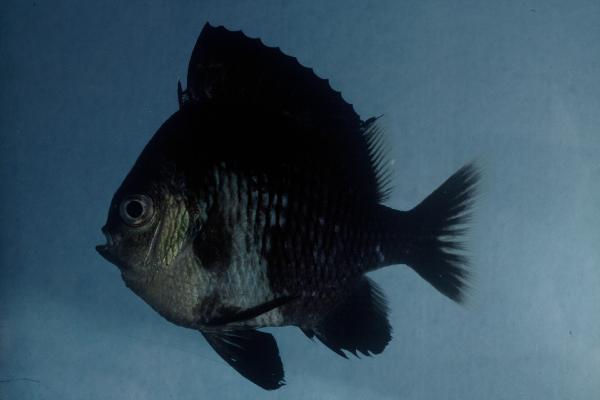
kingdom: Animalia
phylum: Chordata
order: Perciformes
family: Pomacentridae
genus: Dascyllus
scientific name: Dascyllus reticulatus
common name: Reticulated dascyllus
